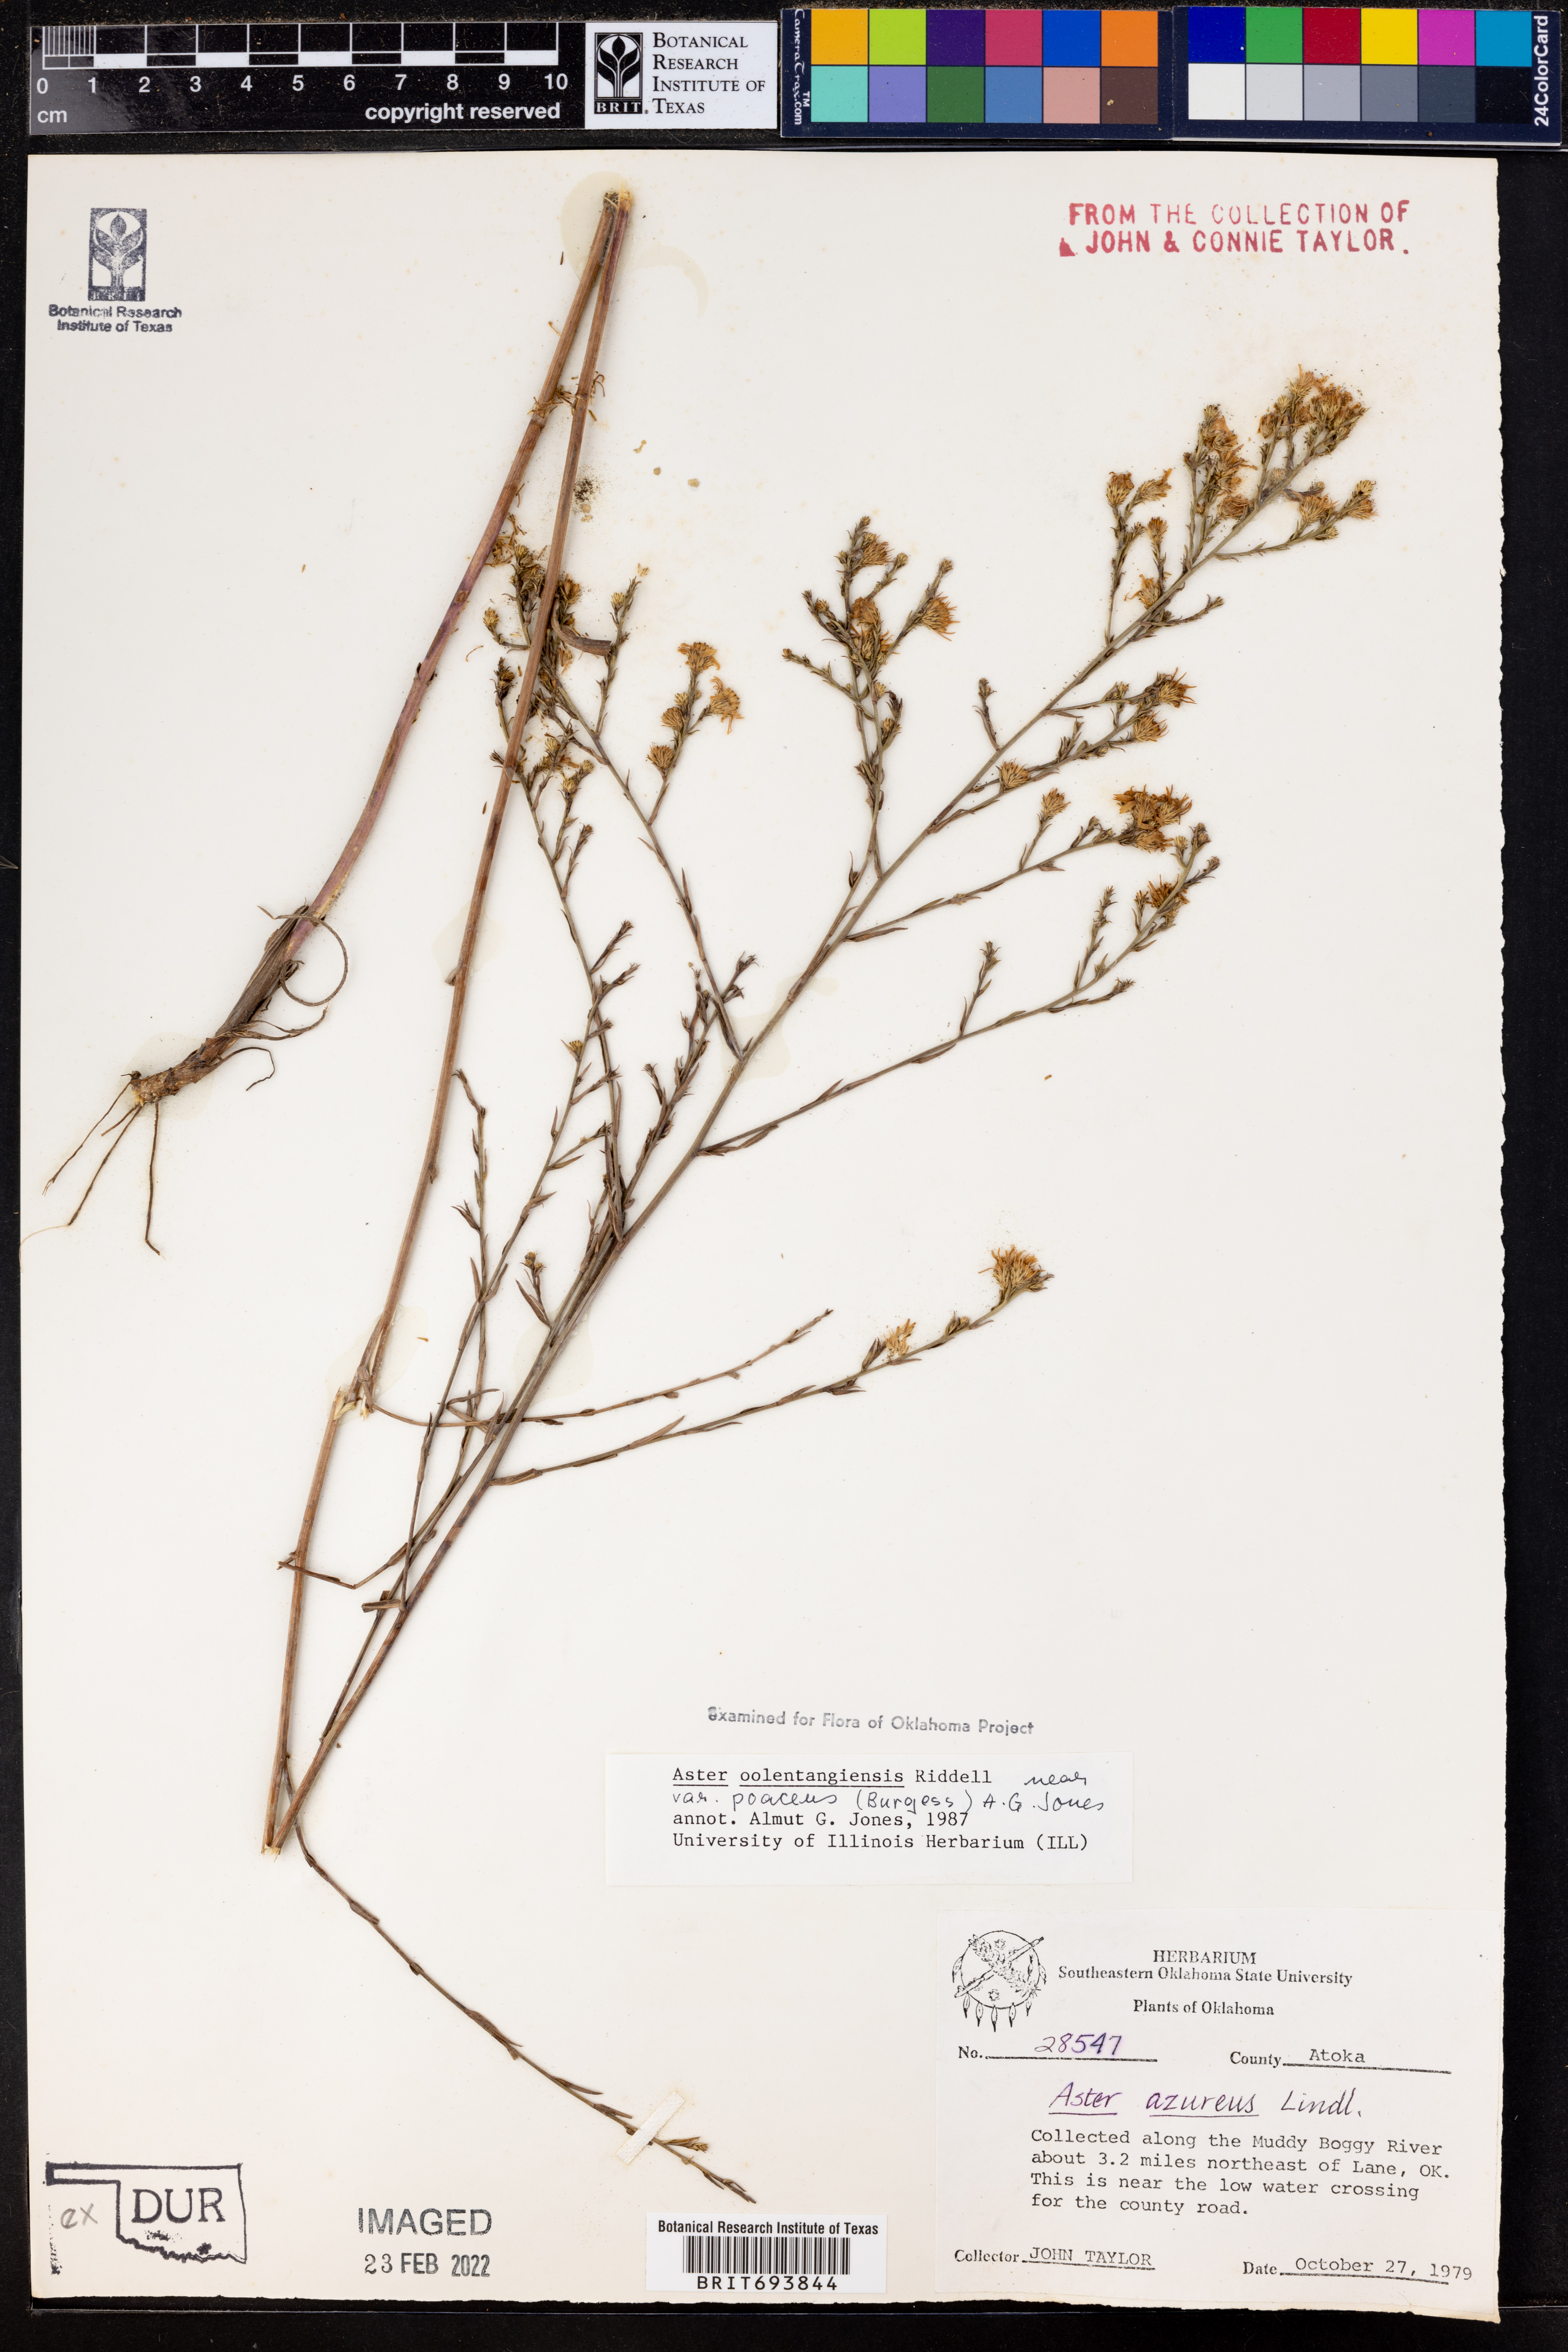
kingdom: Plantae
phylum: Tracheophyta
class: Magnoliopsida
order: Asterales
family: Asteraceae
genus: Symphyotrichum
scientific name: Symphyotrichum oolentangiense
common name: Azure aster
